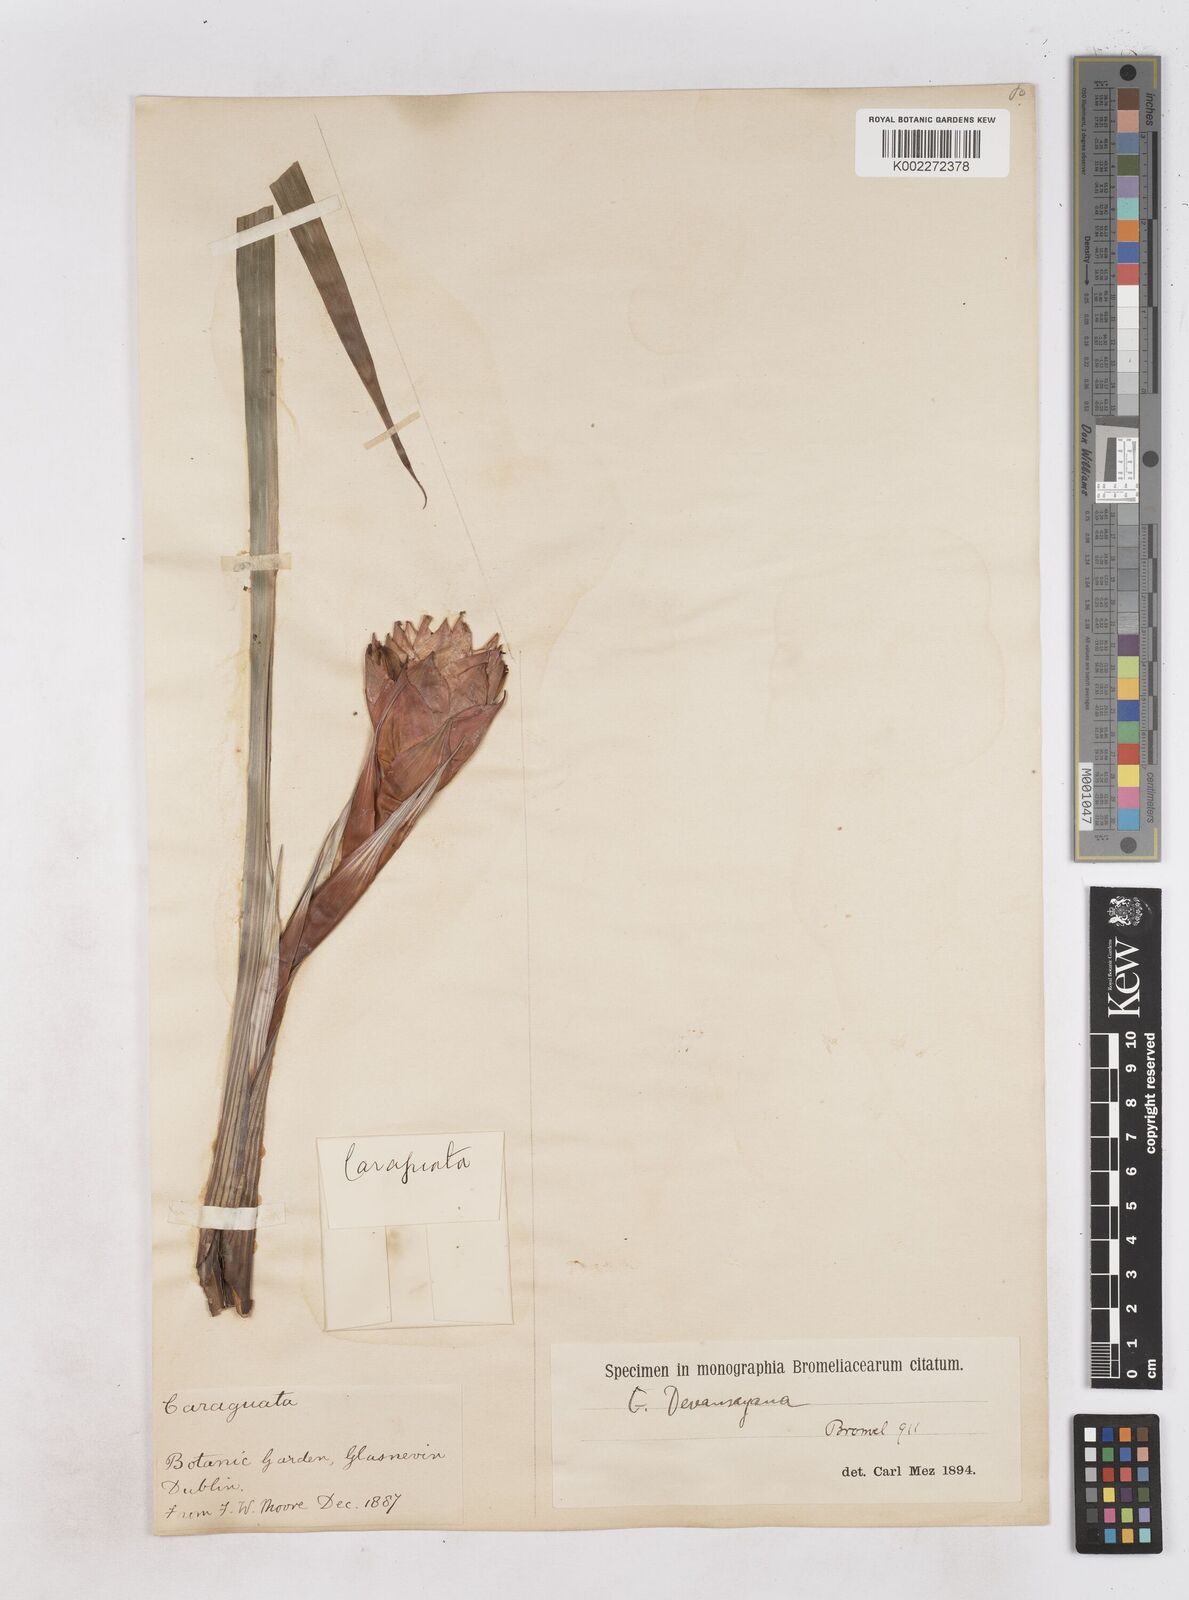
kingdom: Plantae
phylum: Tracheophyta
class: Liliopsida
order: Poales
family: Bromeliaceae
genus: Guzmania
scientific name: Guzmania devansayana
